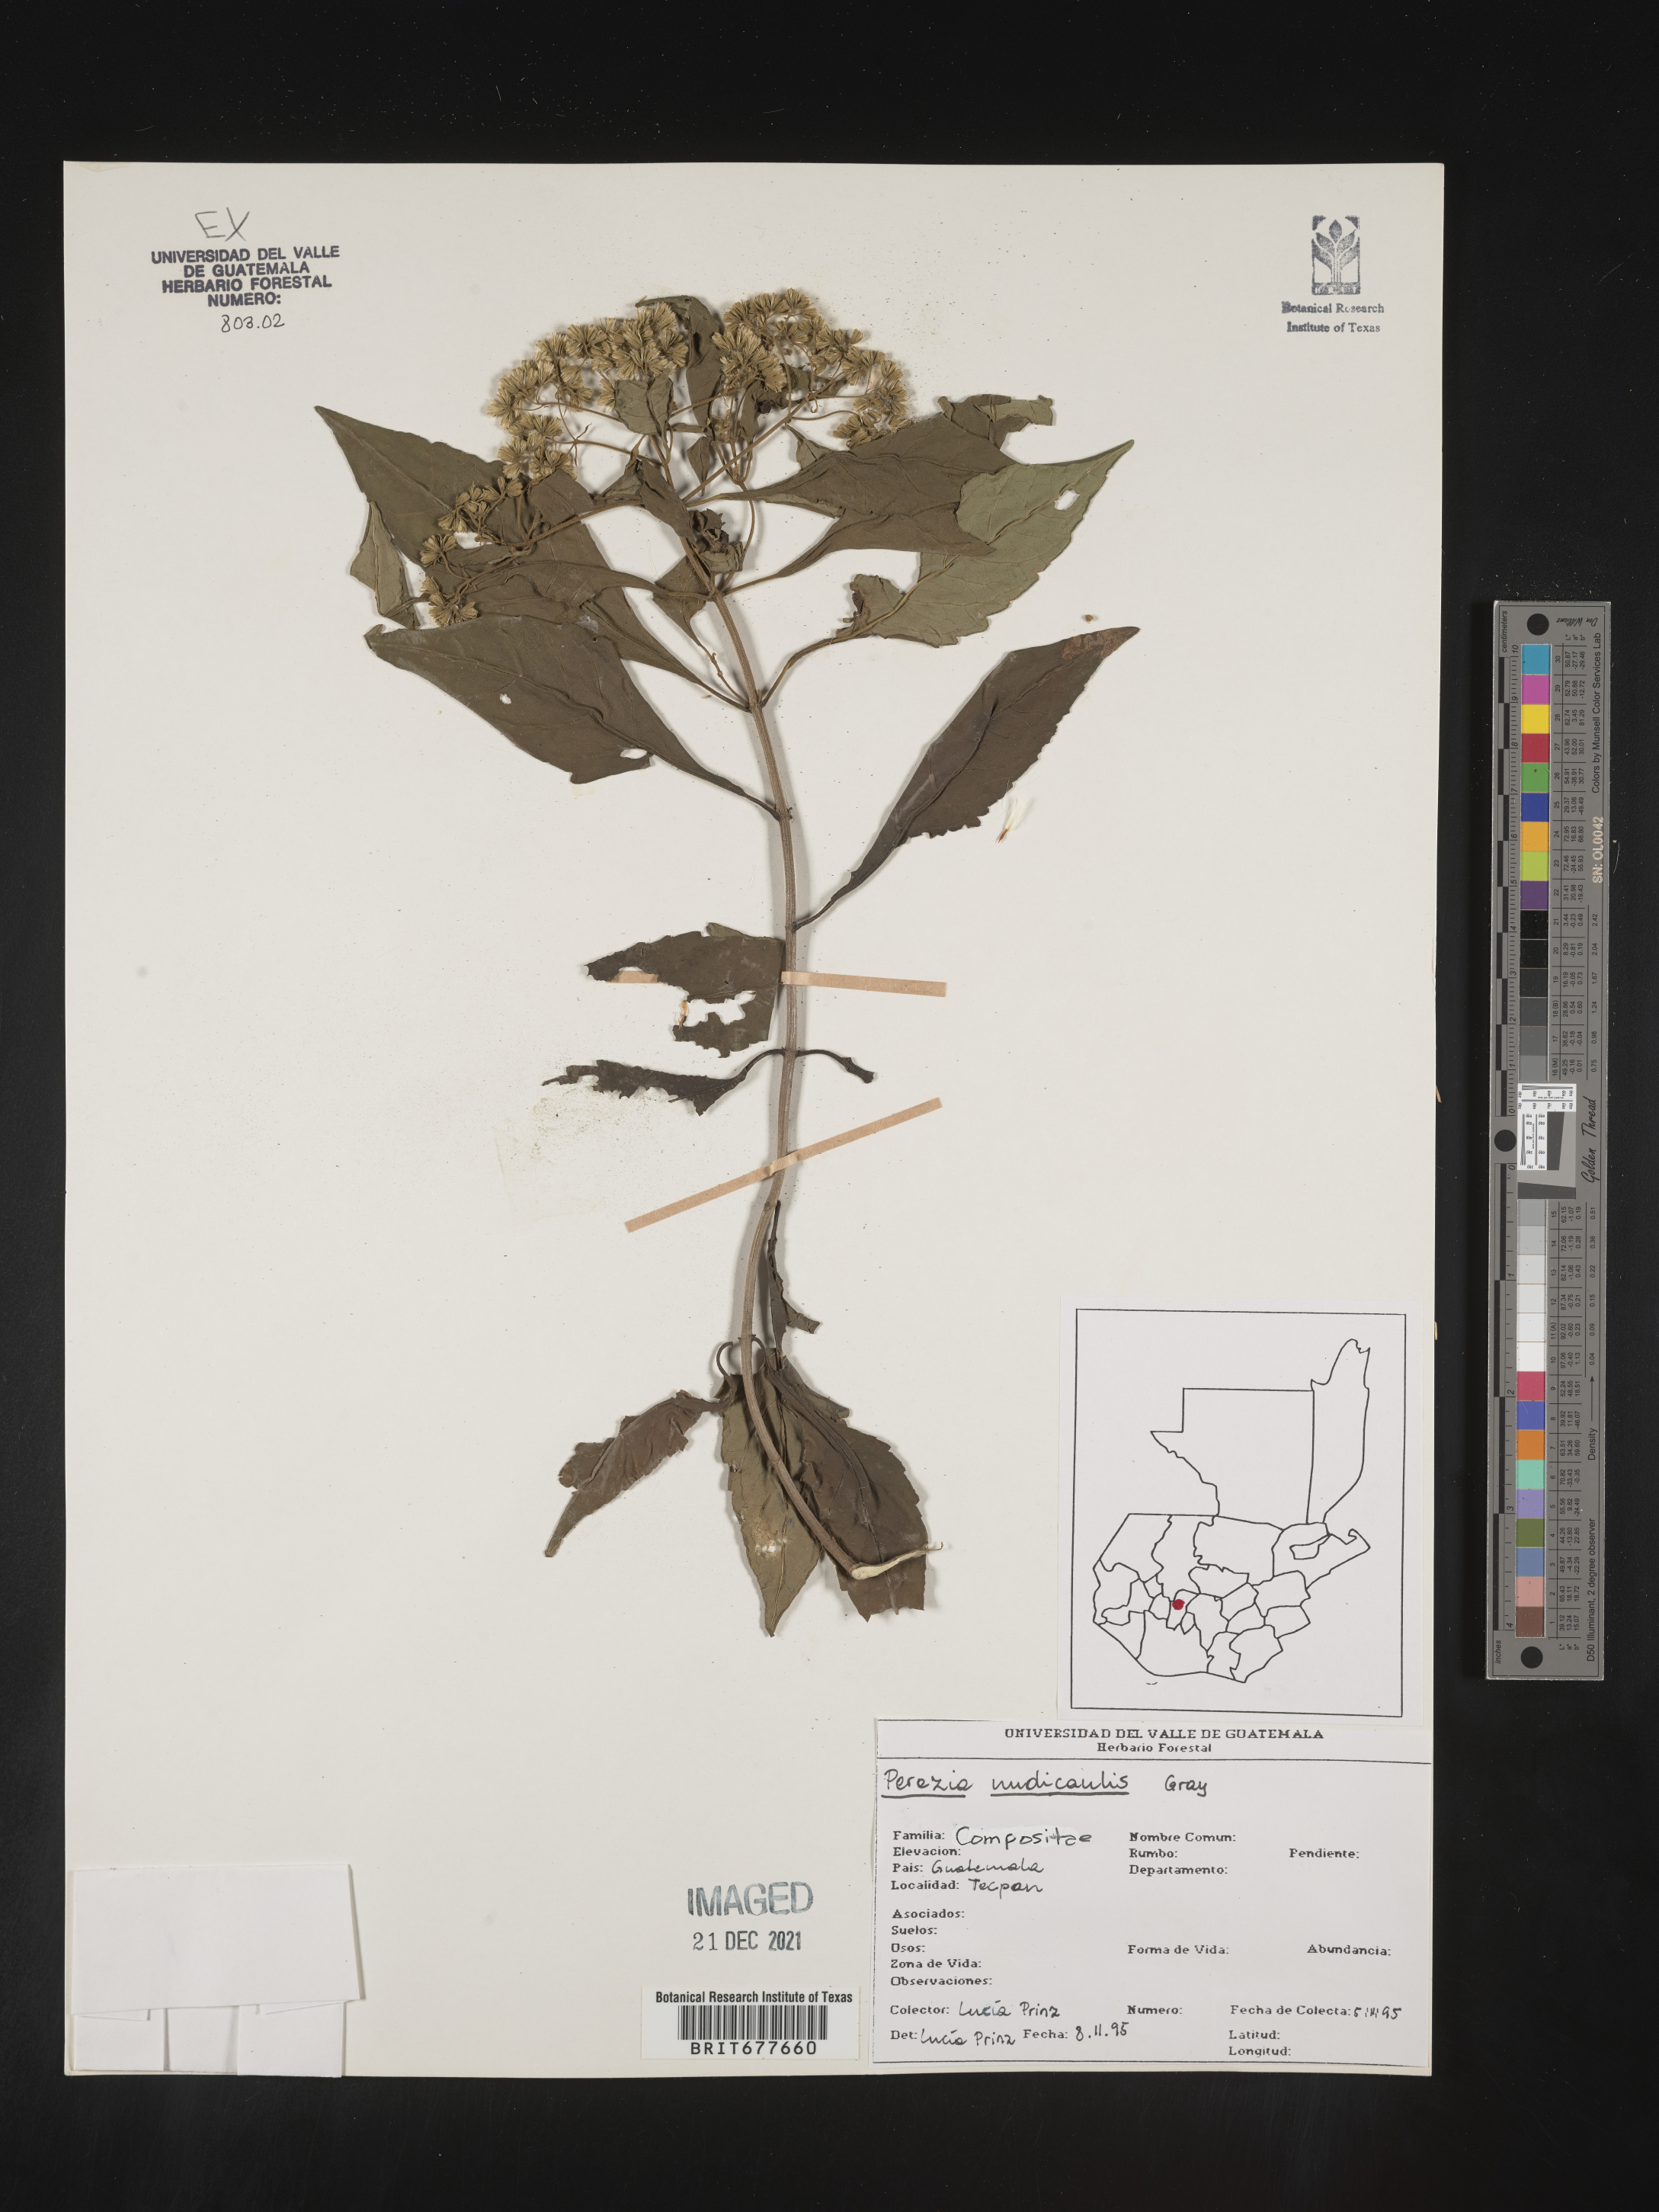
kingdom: Plantae
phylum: Tracheophyta
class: Magnoliopsida
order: Asterales
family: Asteraceae
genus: Perezia
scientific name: Perezia
